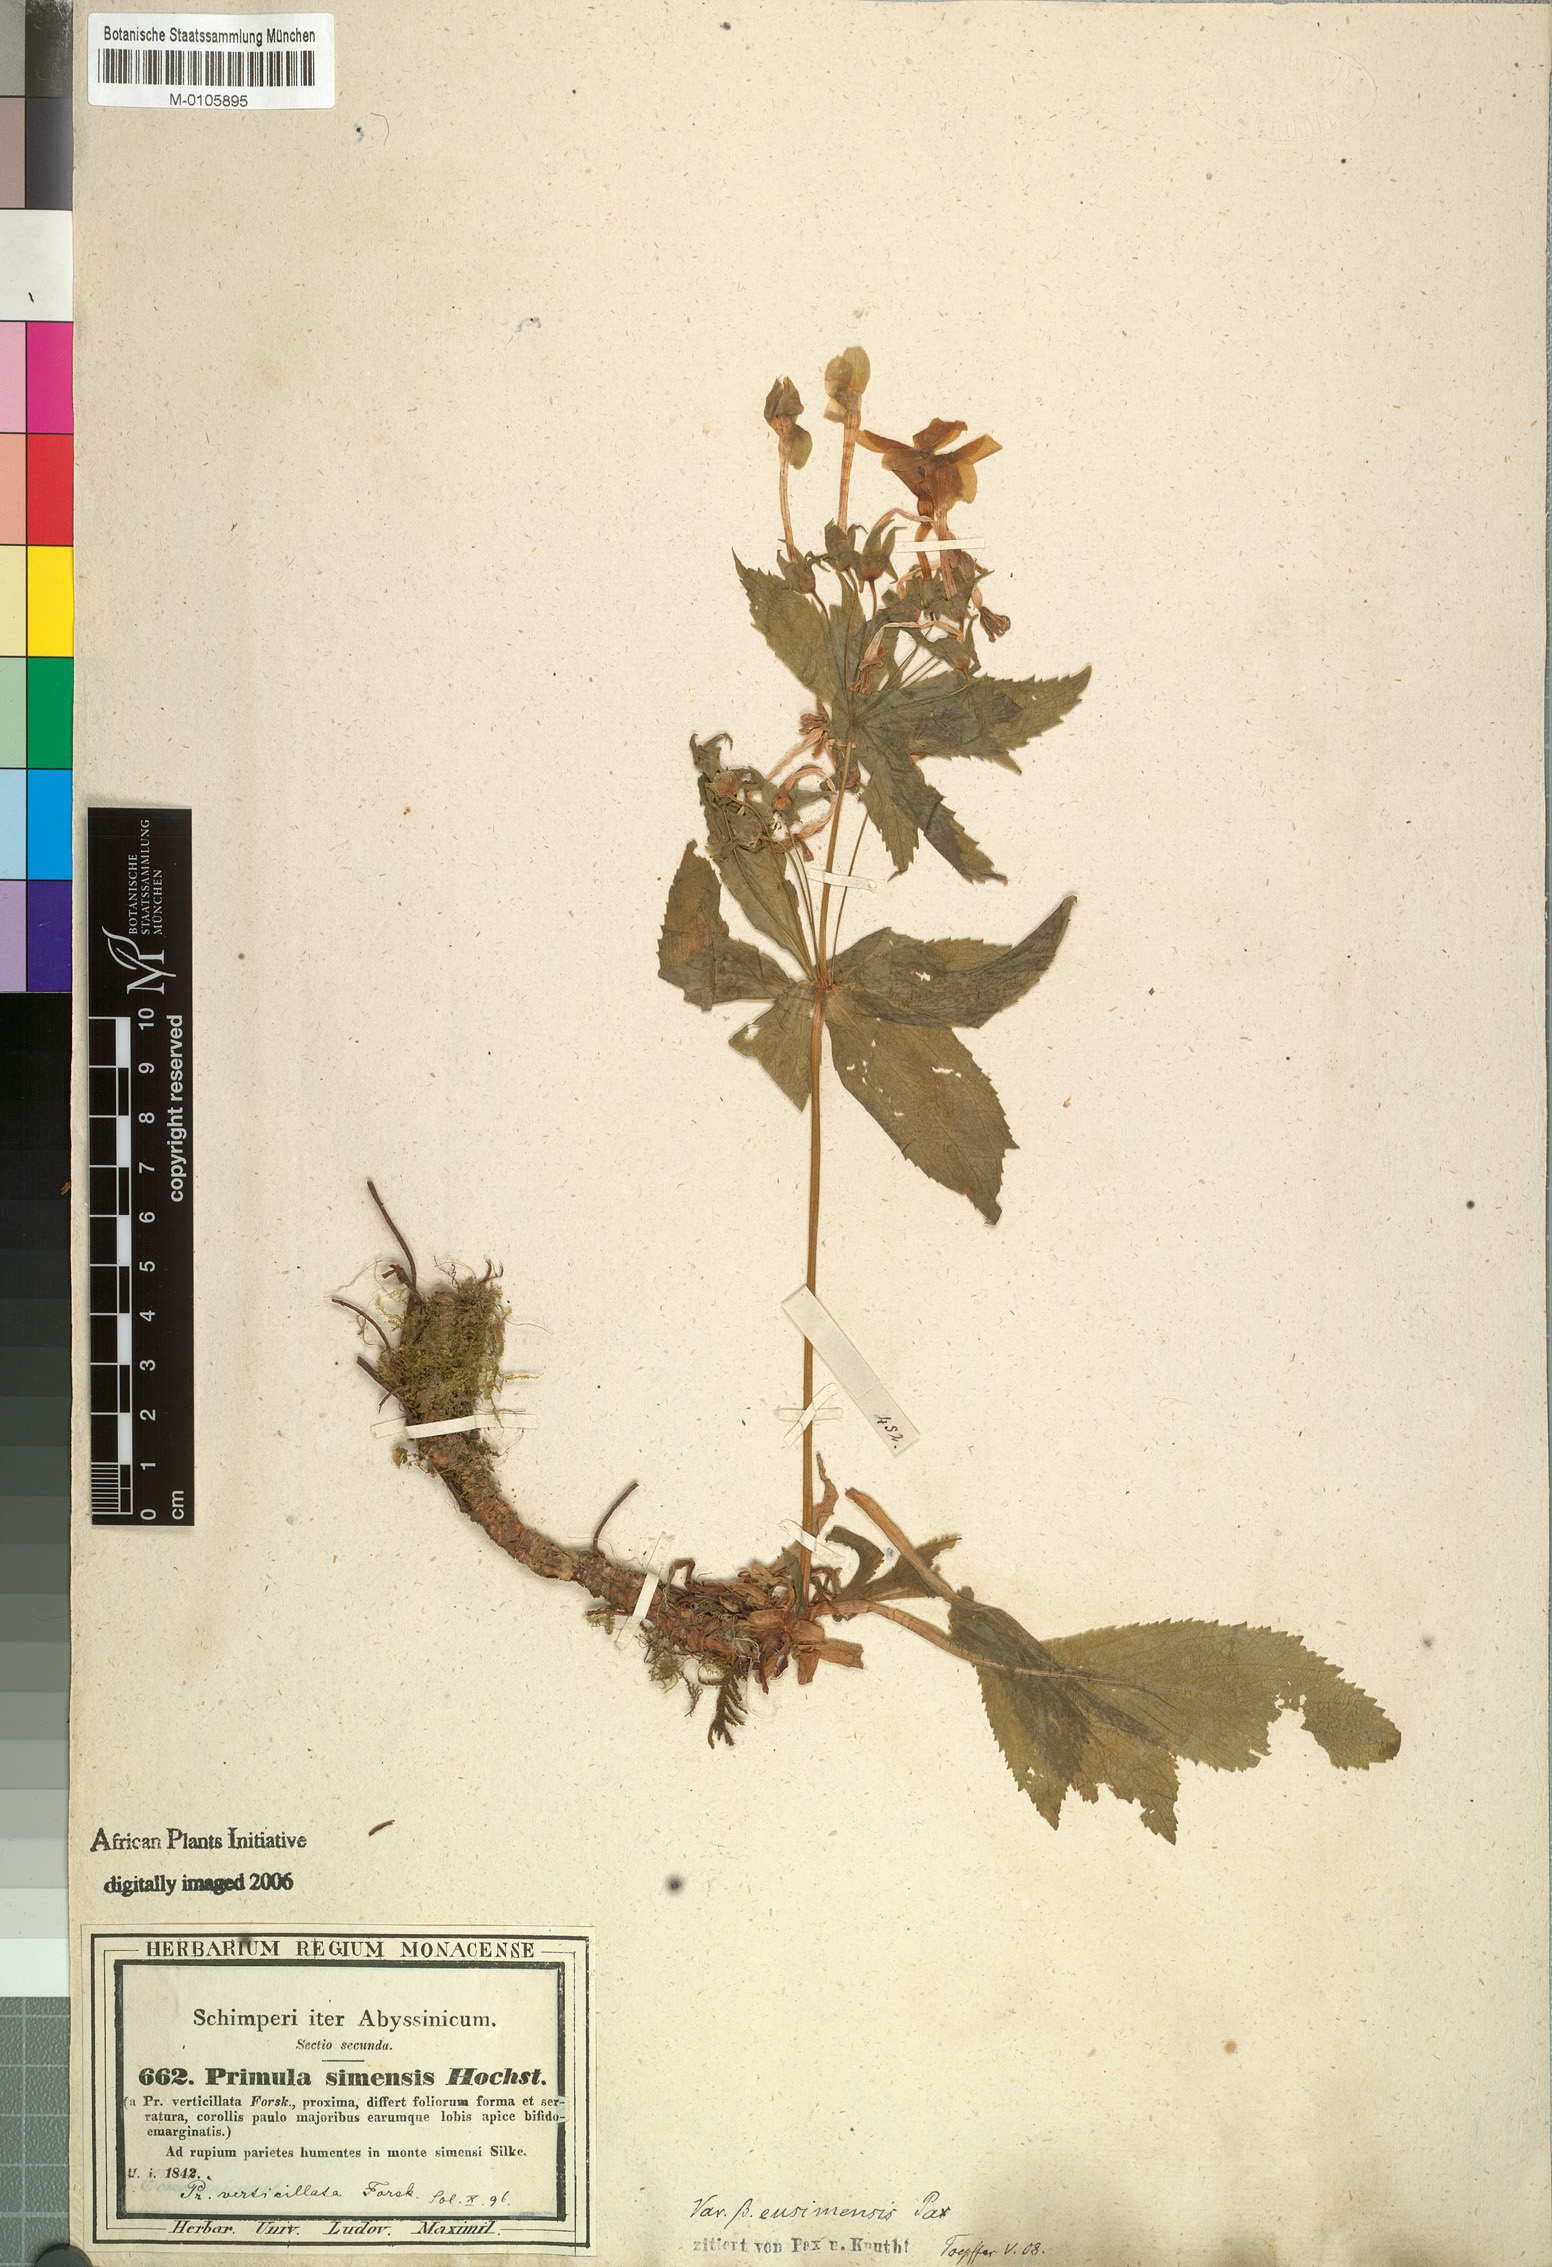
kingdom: Plantae
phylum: Tracheophyta
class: Magnoliopsida
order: Ericales
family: Primulaceae
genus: Evotrochis
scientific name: Evotrochis simensis
